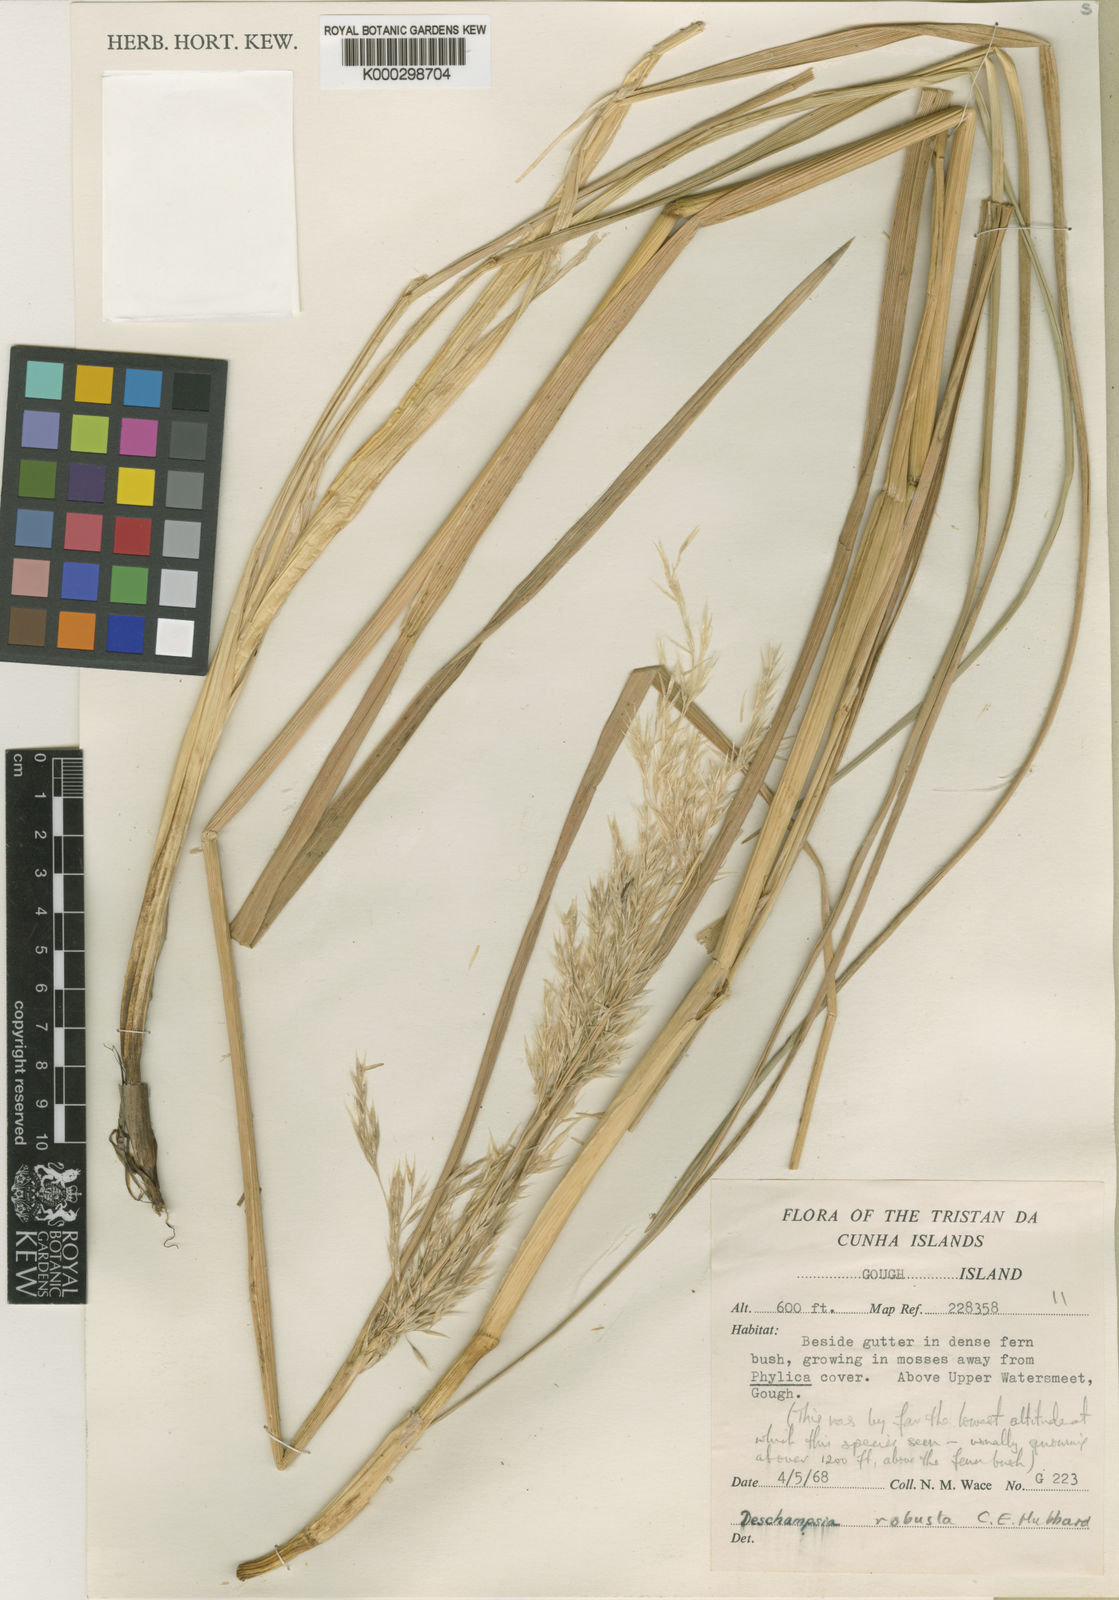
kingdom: Plantae
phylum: Tracheophyta
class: Liliopsida
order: Poales
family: Poaceae
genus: Deschampsia
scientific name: Deschampsia robusta
